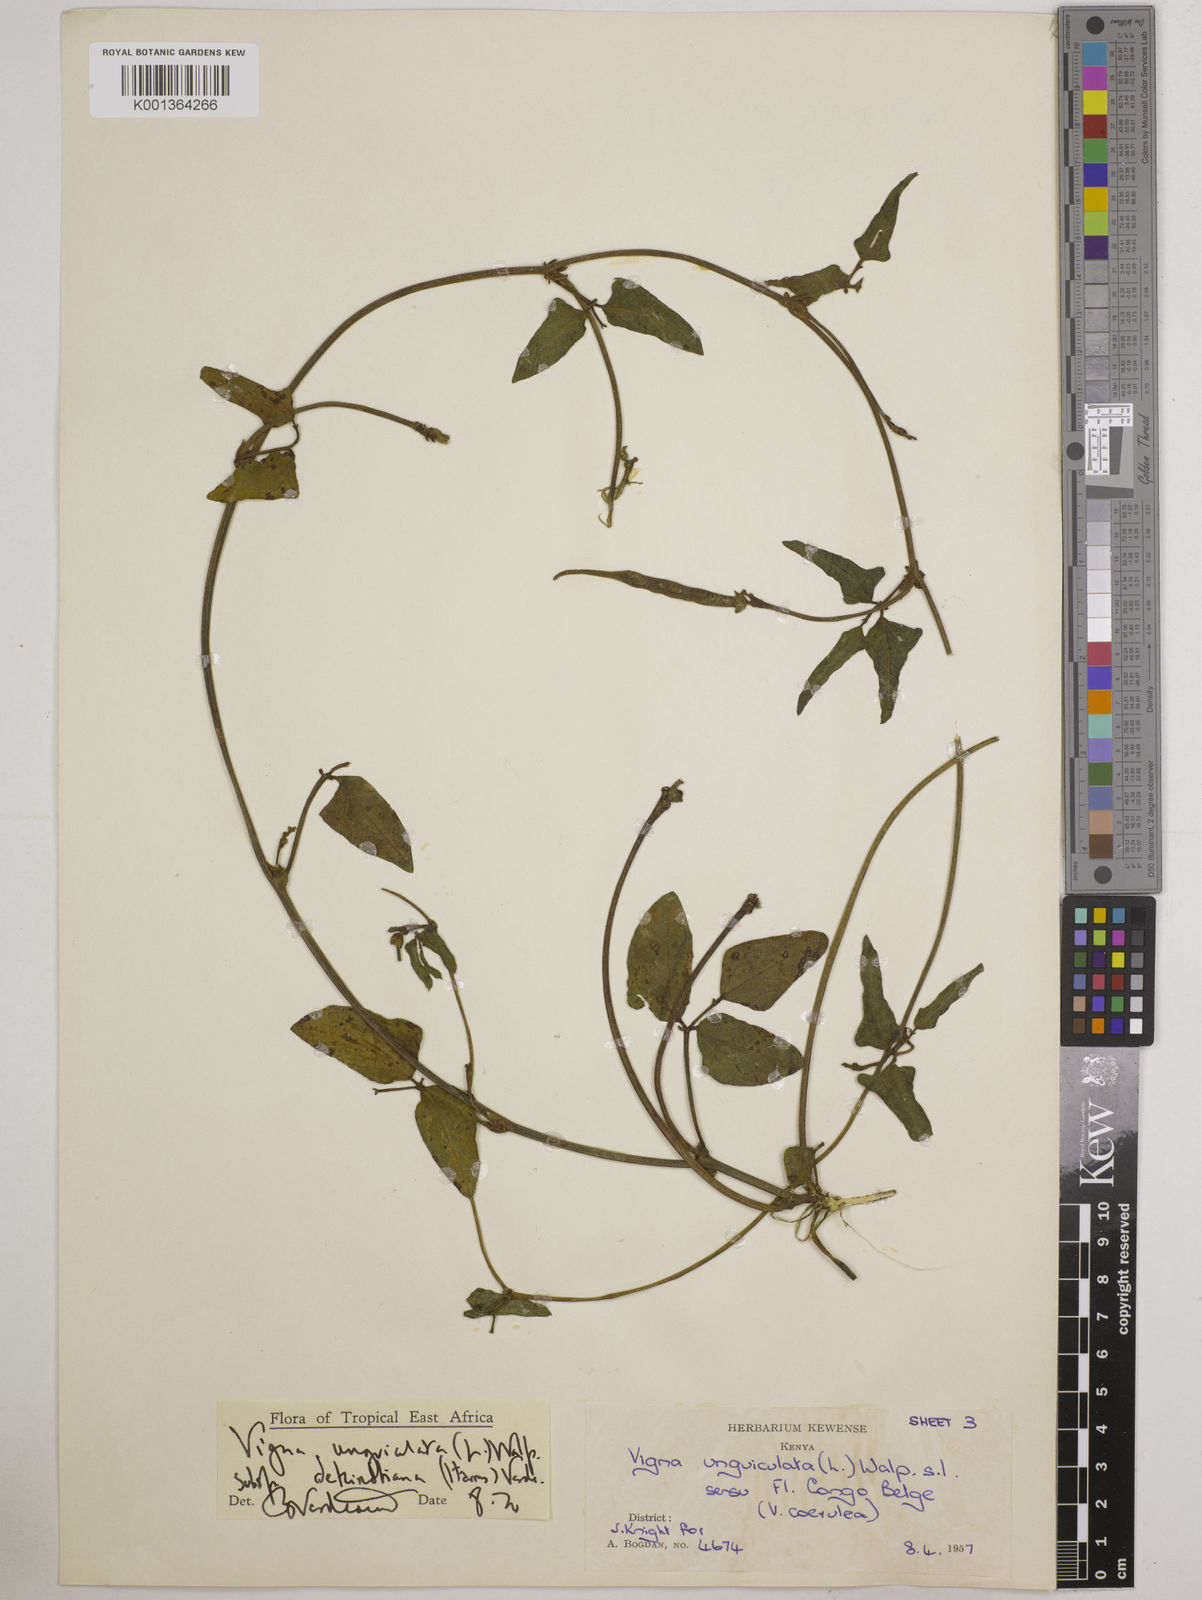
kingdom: Plantae
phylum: Tracheophyta
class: Magnoliopsida
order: Fabales
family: Fabaceae
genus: Vigna
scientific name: Vigna
